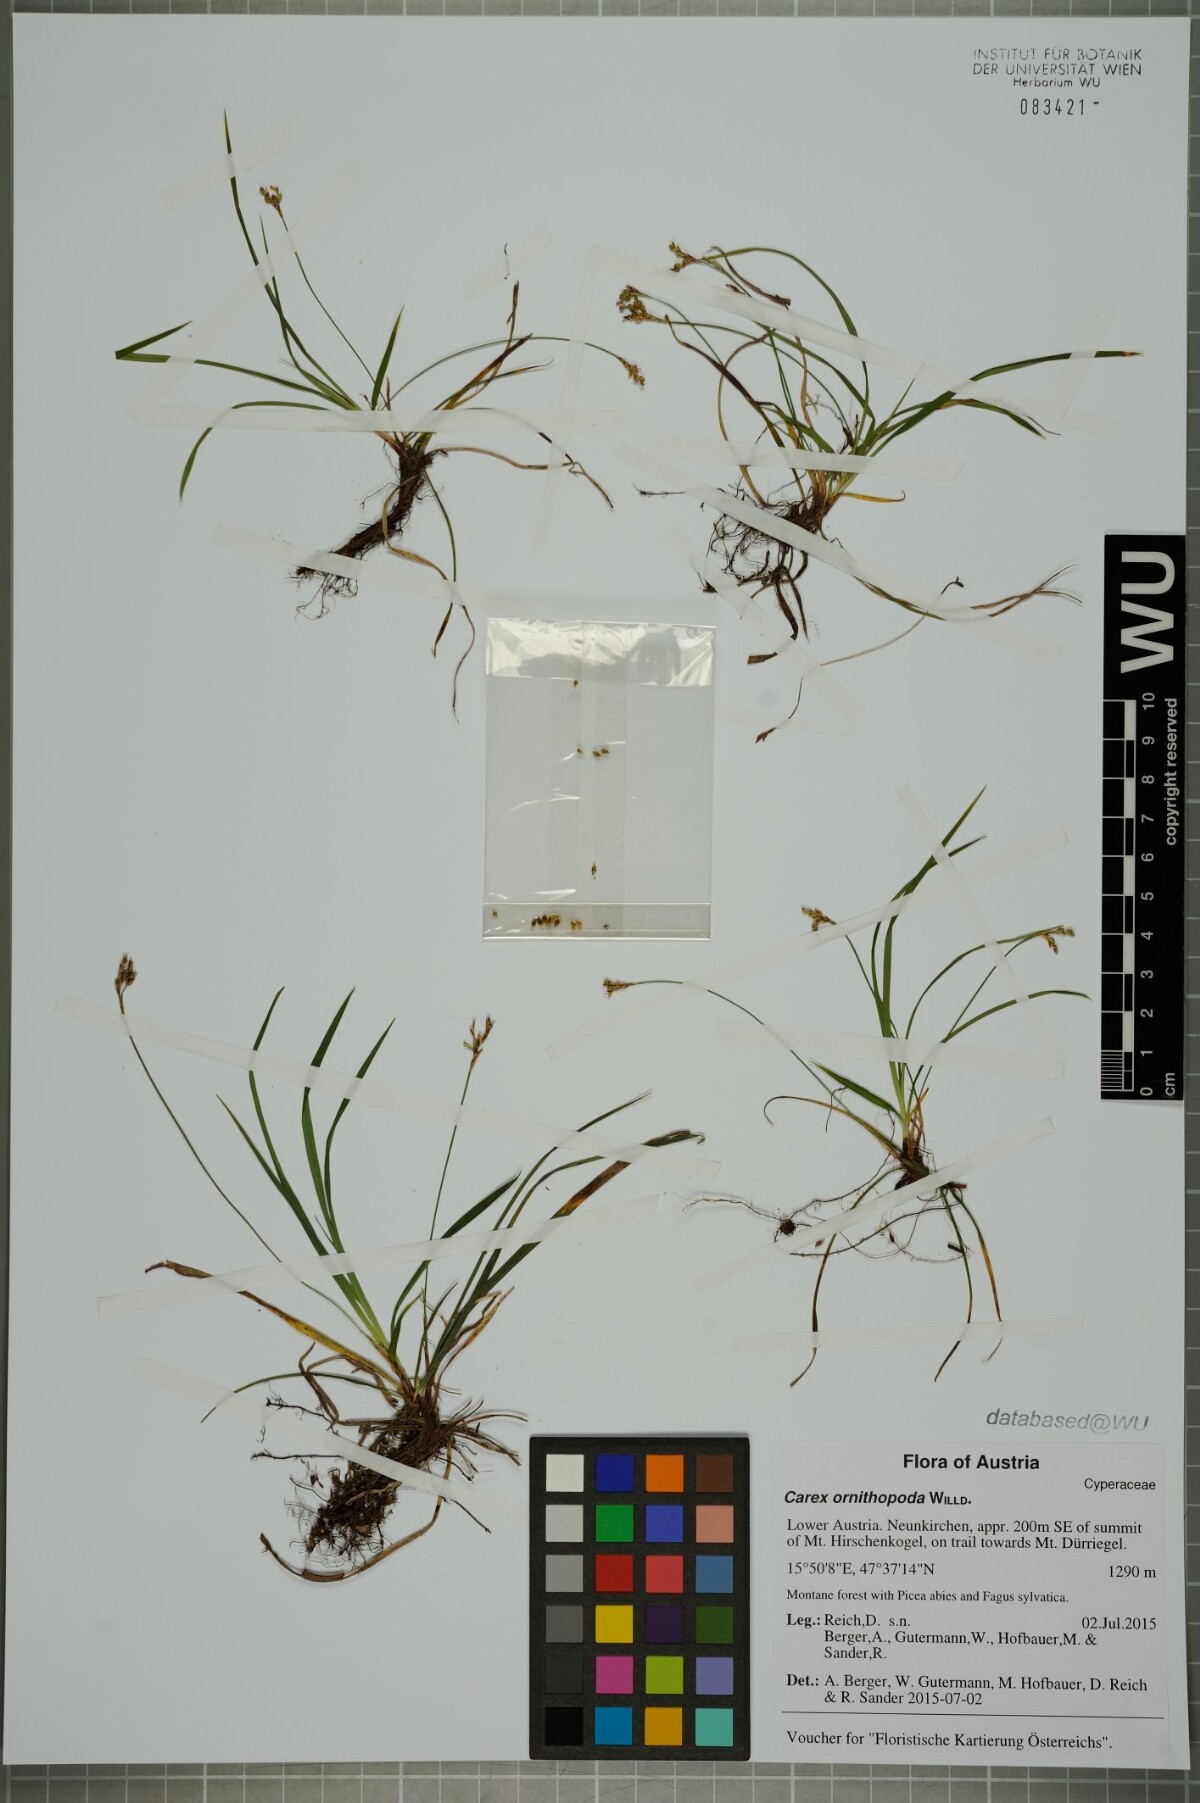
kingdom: Plantae
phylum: Tracheophyta
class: Liliopsida
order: Poales
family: Cyperaceae
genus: Carex
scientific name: Carex ornithopoda
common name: Bird's-foot sedge
